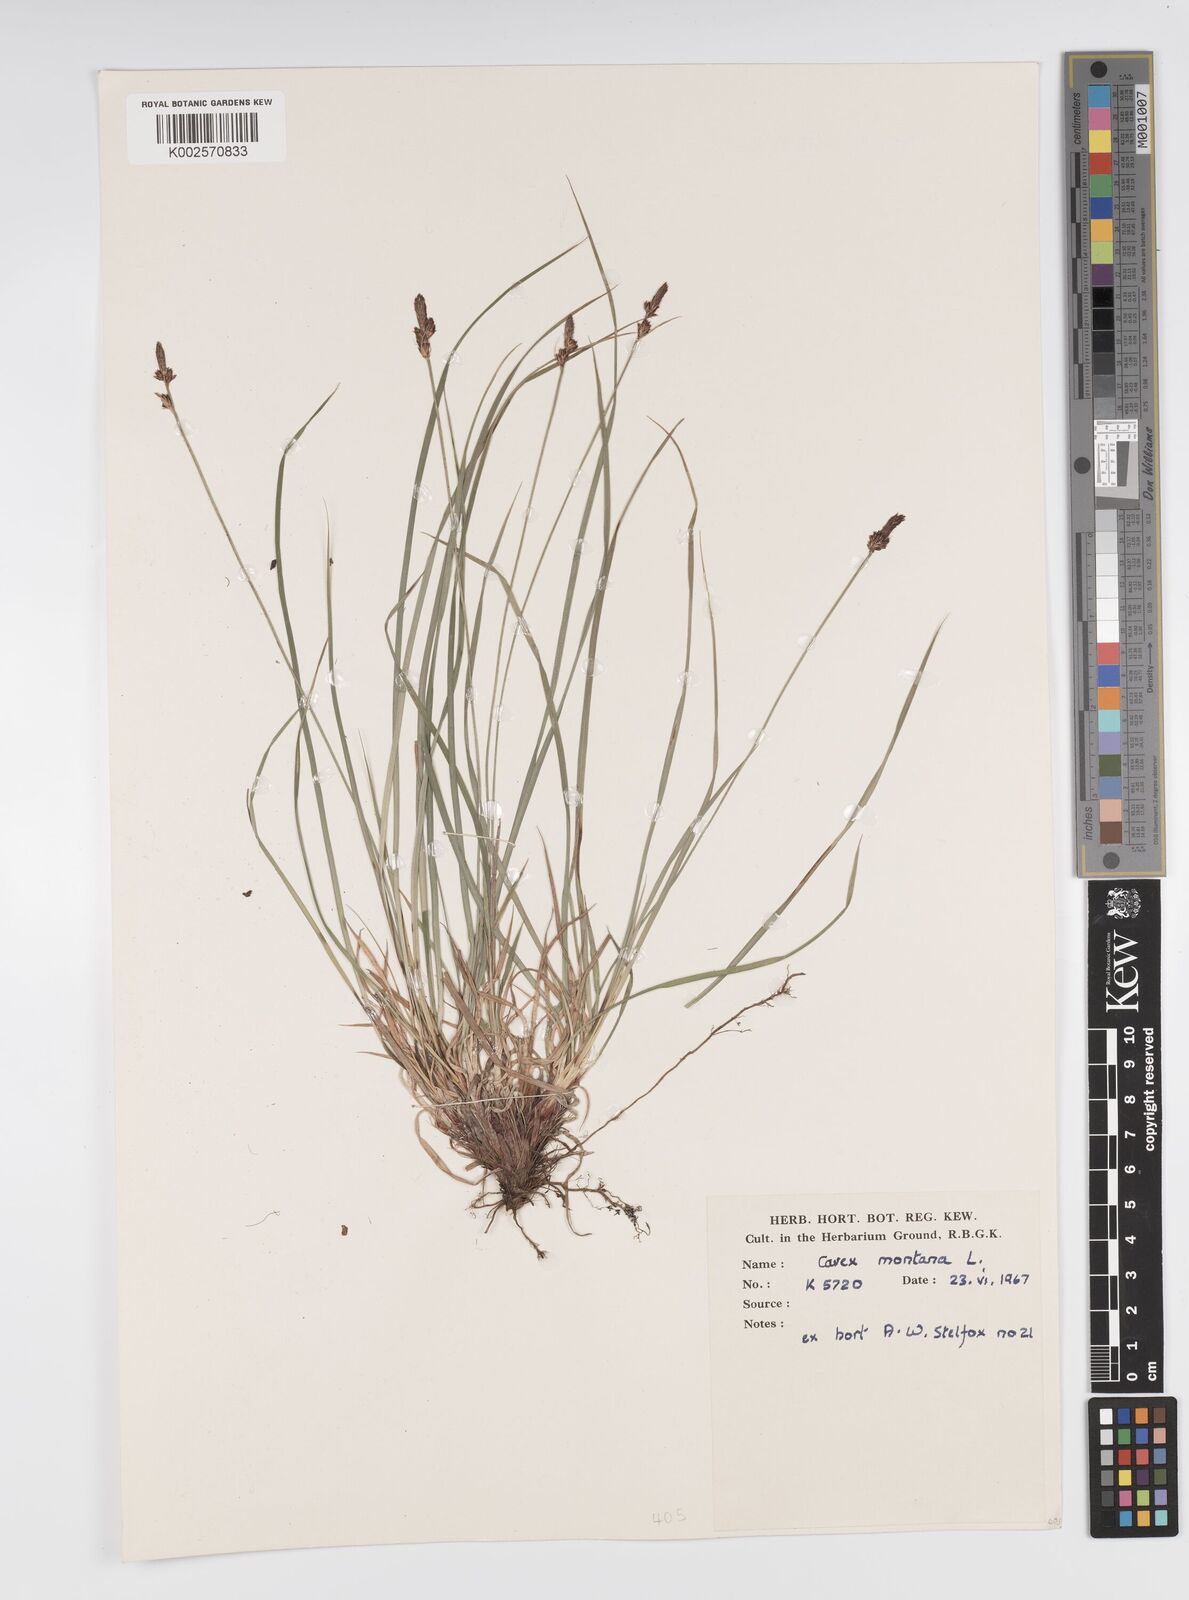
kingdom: Plantae
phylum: Tracheophyta
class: Liliopsida
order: Poales
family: Cyperaceae
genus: Carex
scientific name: Carex montana
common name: Soft-leaved sedge
